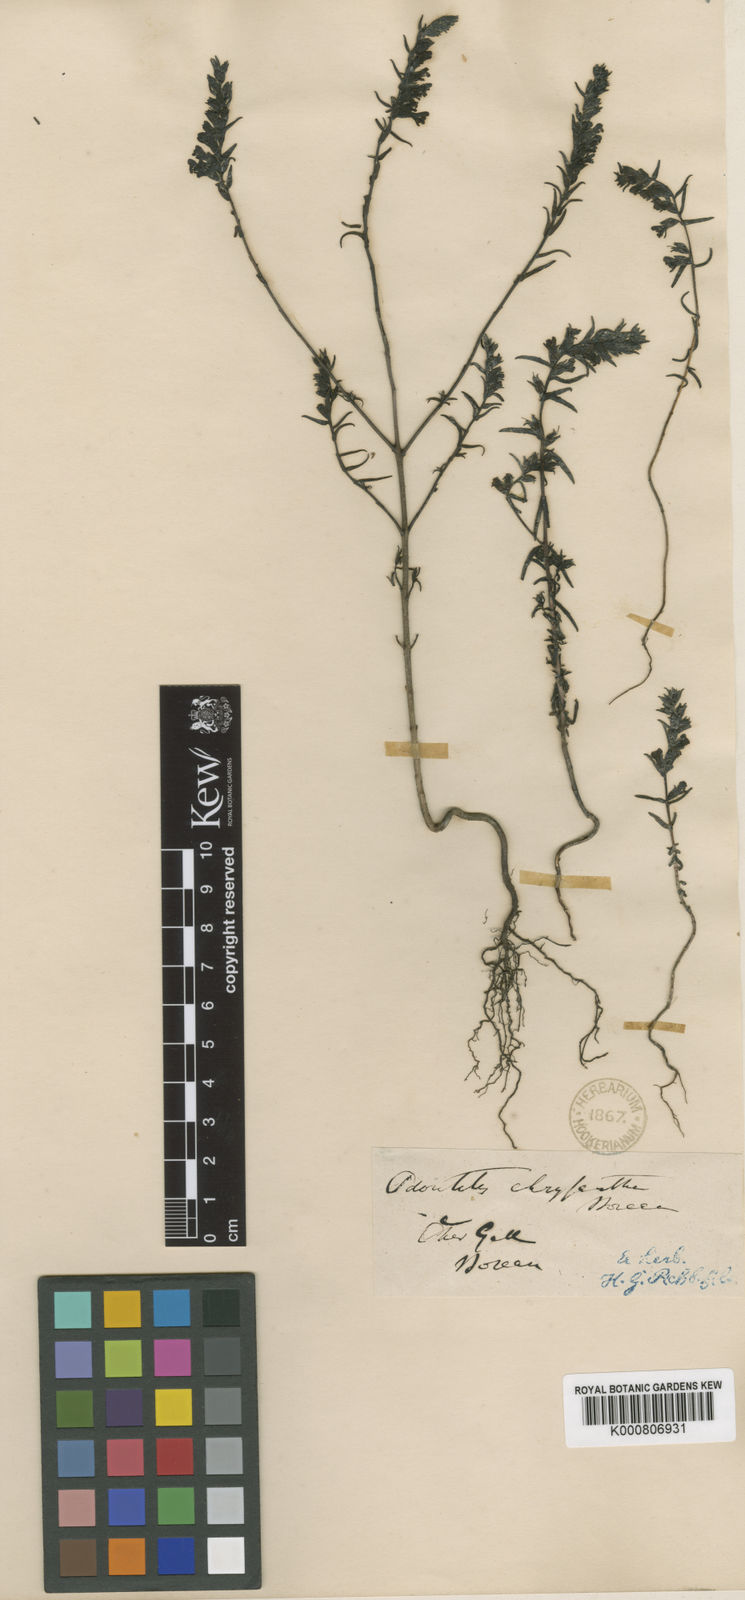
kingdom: Plantae
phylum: Tracheophyta
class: Magnoliopsida
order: Lamiales
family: Orobanchaceae
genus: Odontites
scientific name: Odontites
